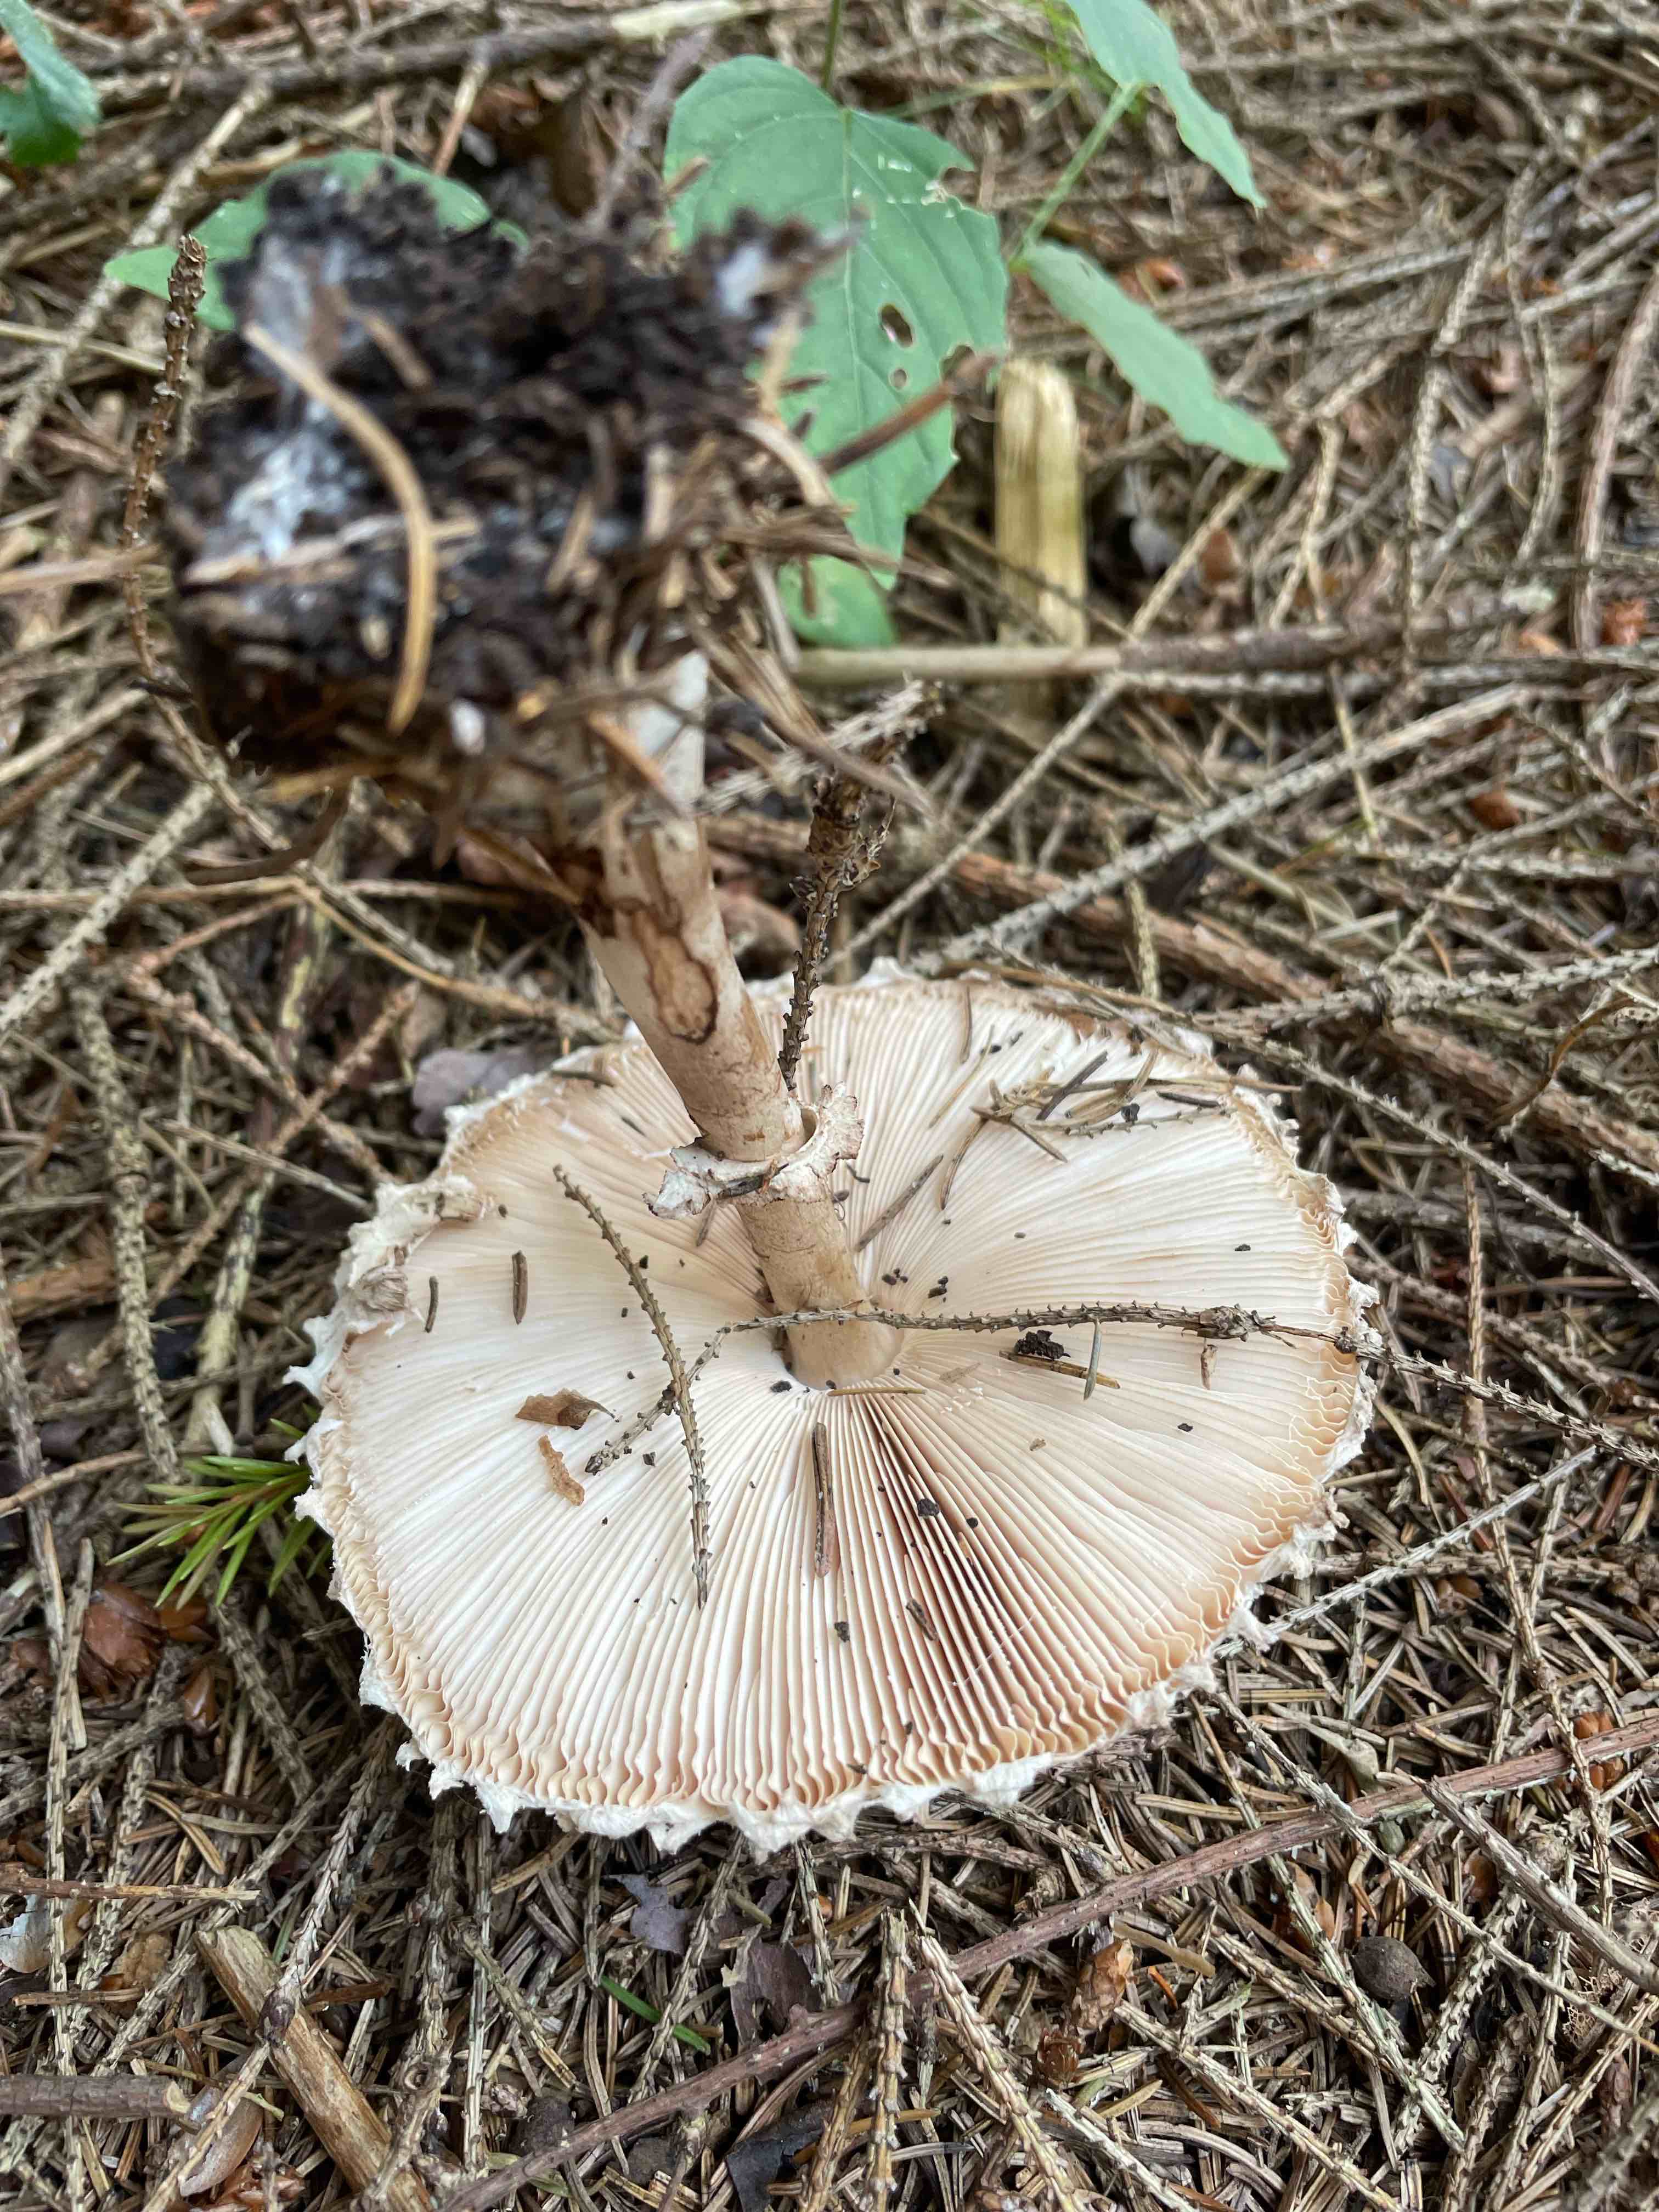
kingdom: Fungi
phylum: Basidiomycota
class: Agaricomycetes
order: Agaricales
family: Agaricaceae
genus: Leucoagaricus
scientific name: Leucoagaricus nympharum
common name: gran-silkehat
